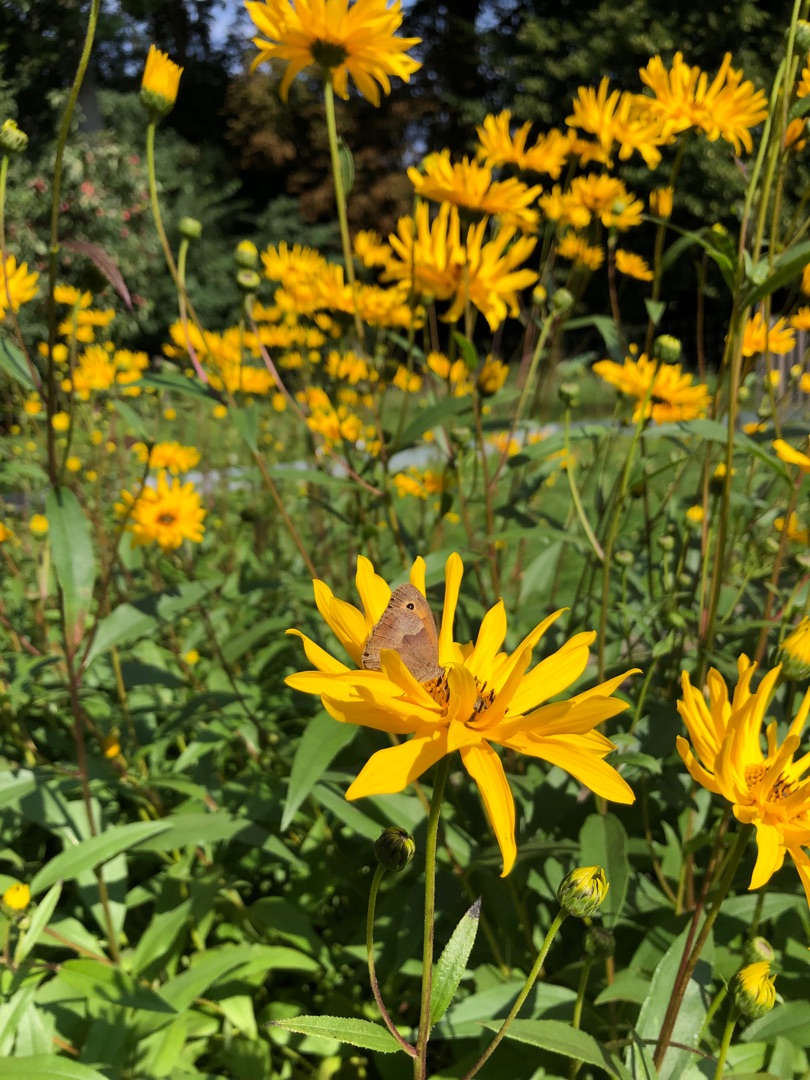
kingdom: Animalia
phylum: Arthropoda
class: Insecta
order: Lepidoptera
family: Nymphalidae
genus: Maniola
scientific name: Maniola jurtina
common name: Græsrandøje
